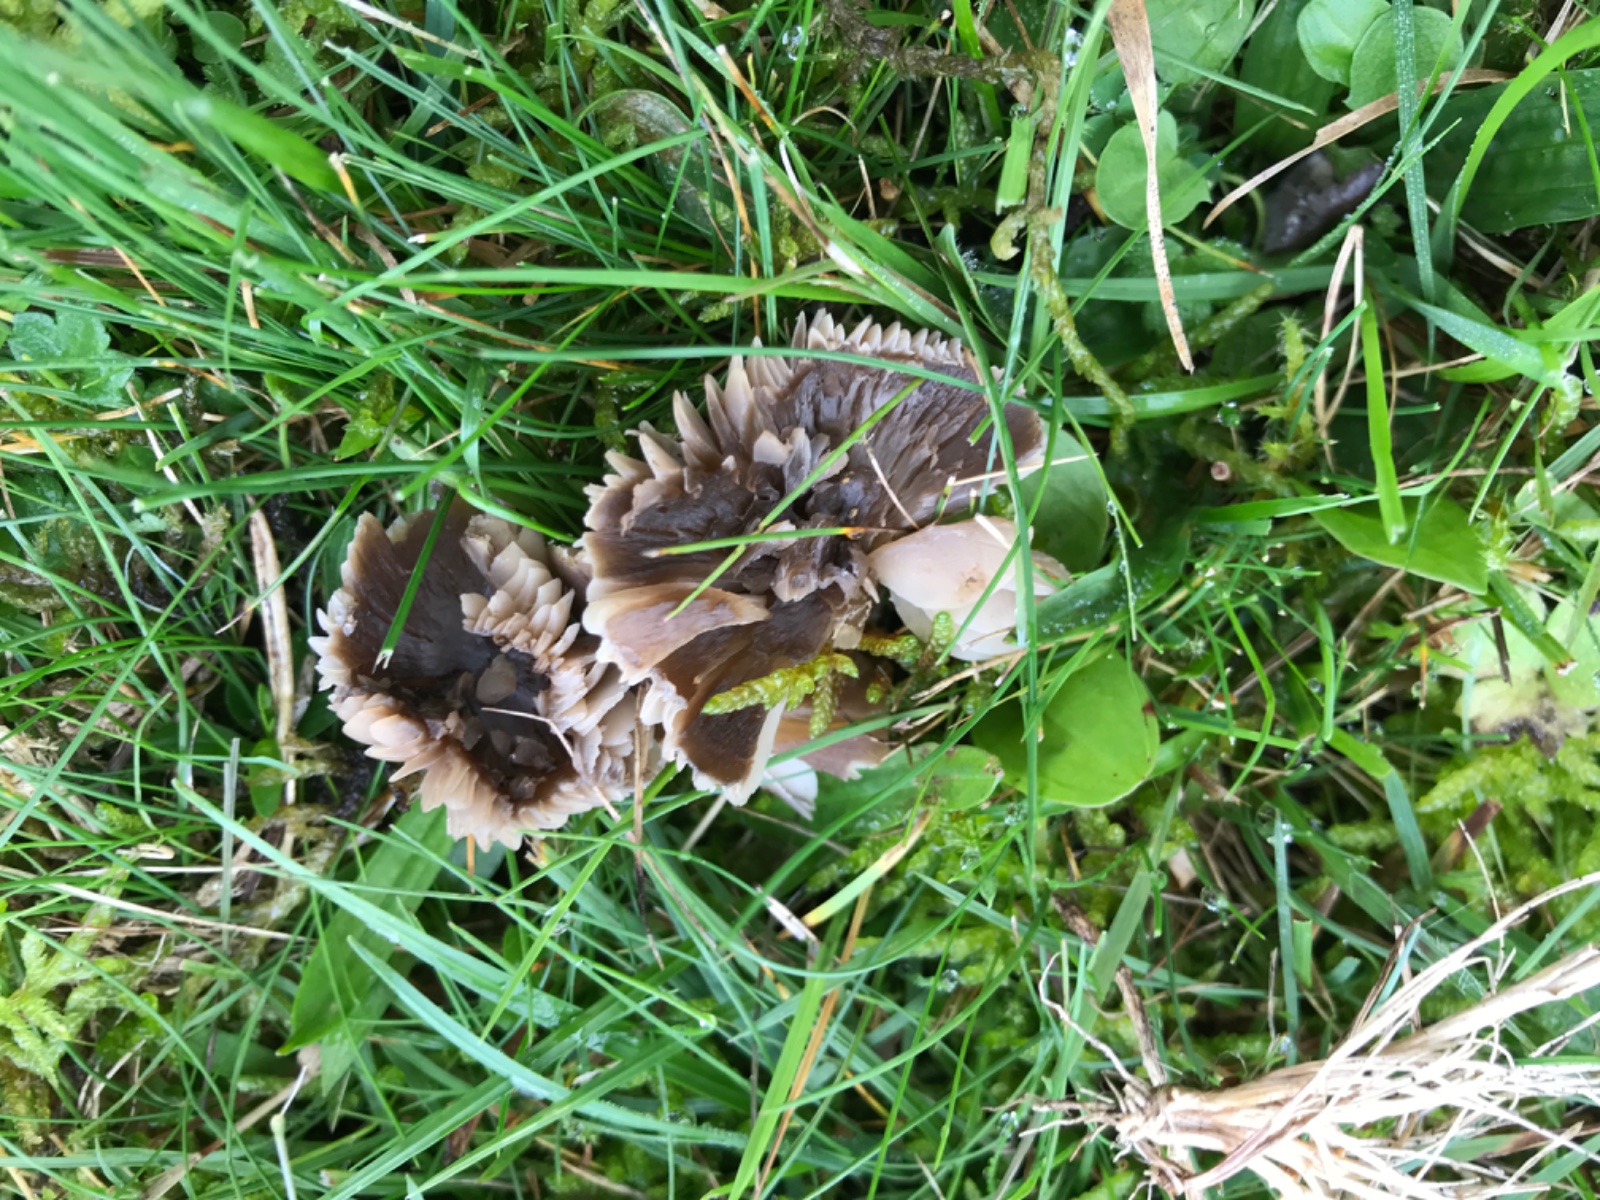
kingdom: Fungi
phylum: Basidiomycota
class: Agaricomycetes
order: Agaricales
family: Hygrophoraceae
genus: Neohygrocybe
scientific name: Neohygrocybe nitrata
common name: stinkende vokshat
